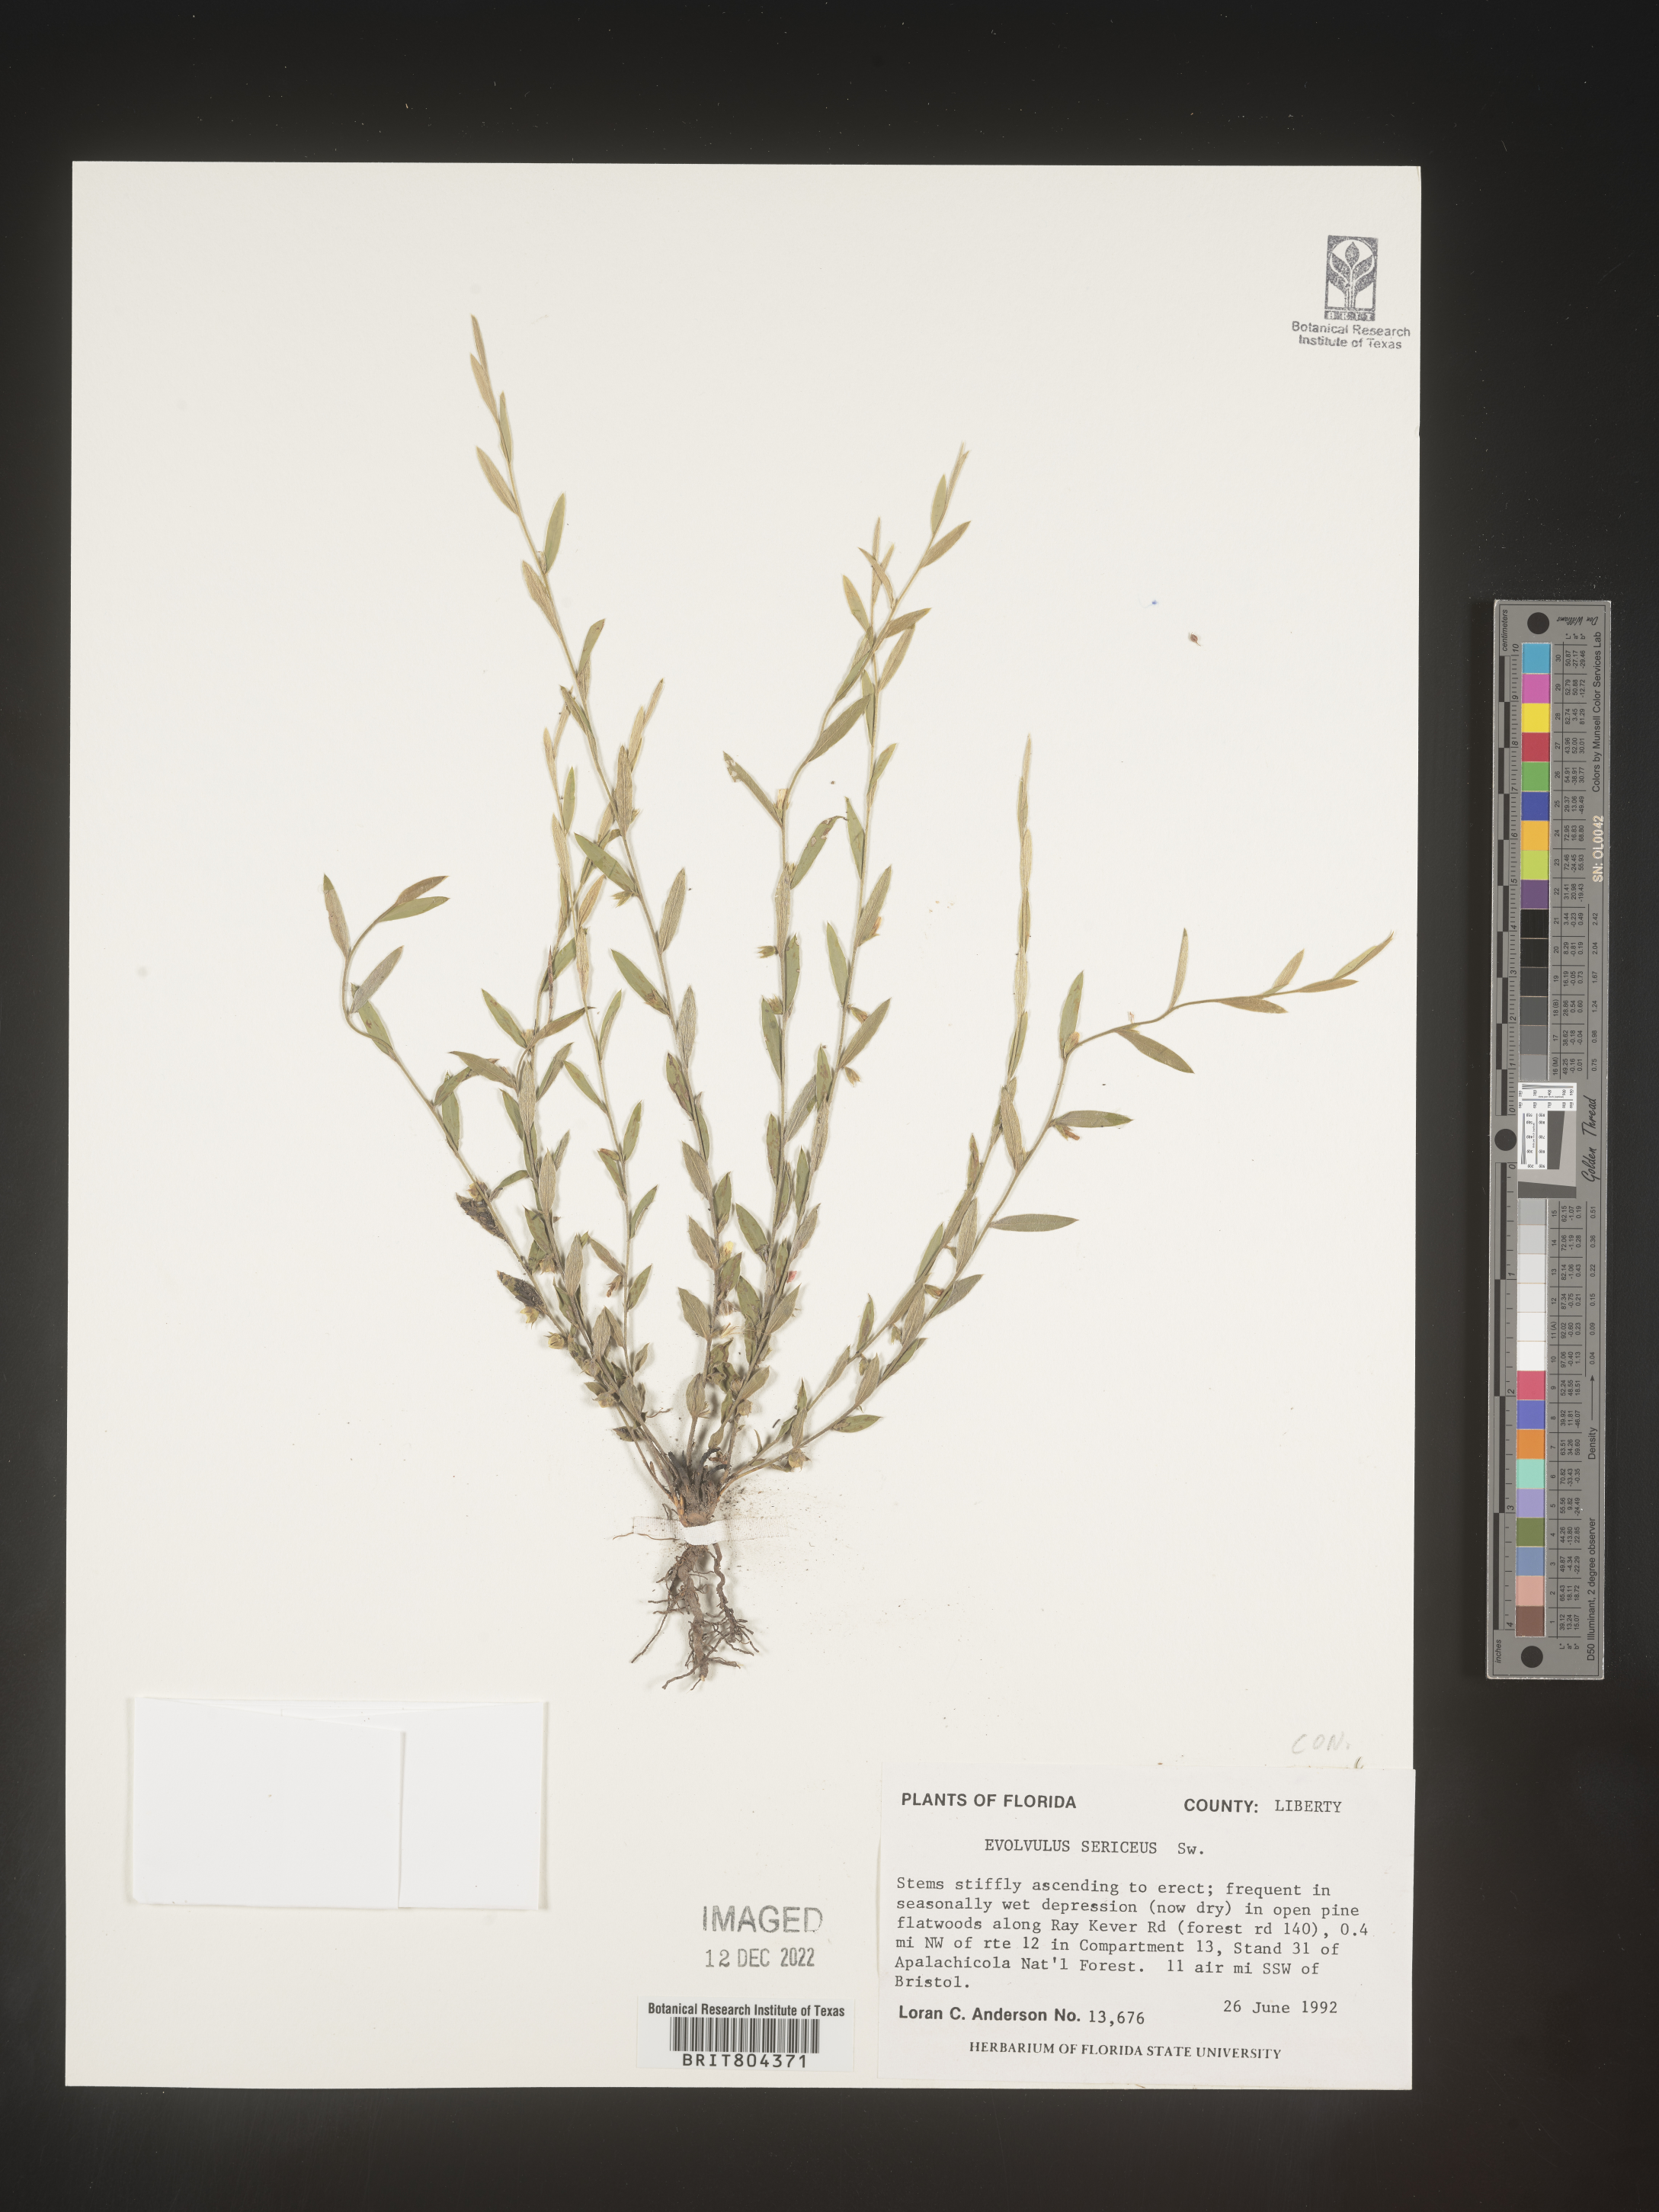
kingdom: Plantae
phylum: Tracheophyta
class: Magnoliopsida
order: Solanales
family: Convolvulaceae
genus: Evolvulus
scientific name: Evolvulus
